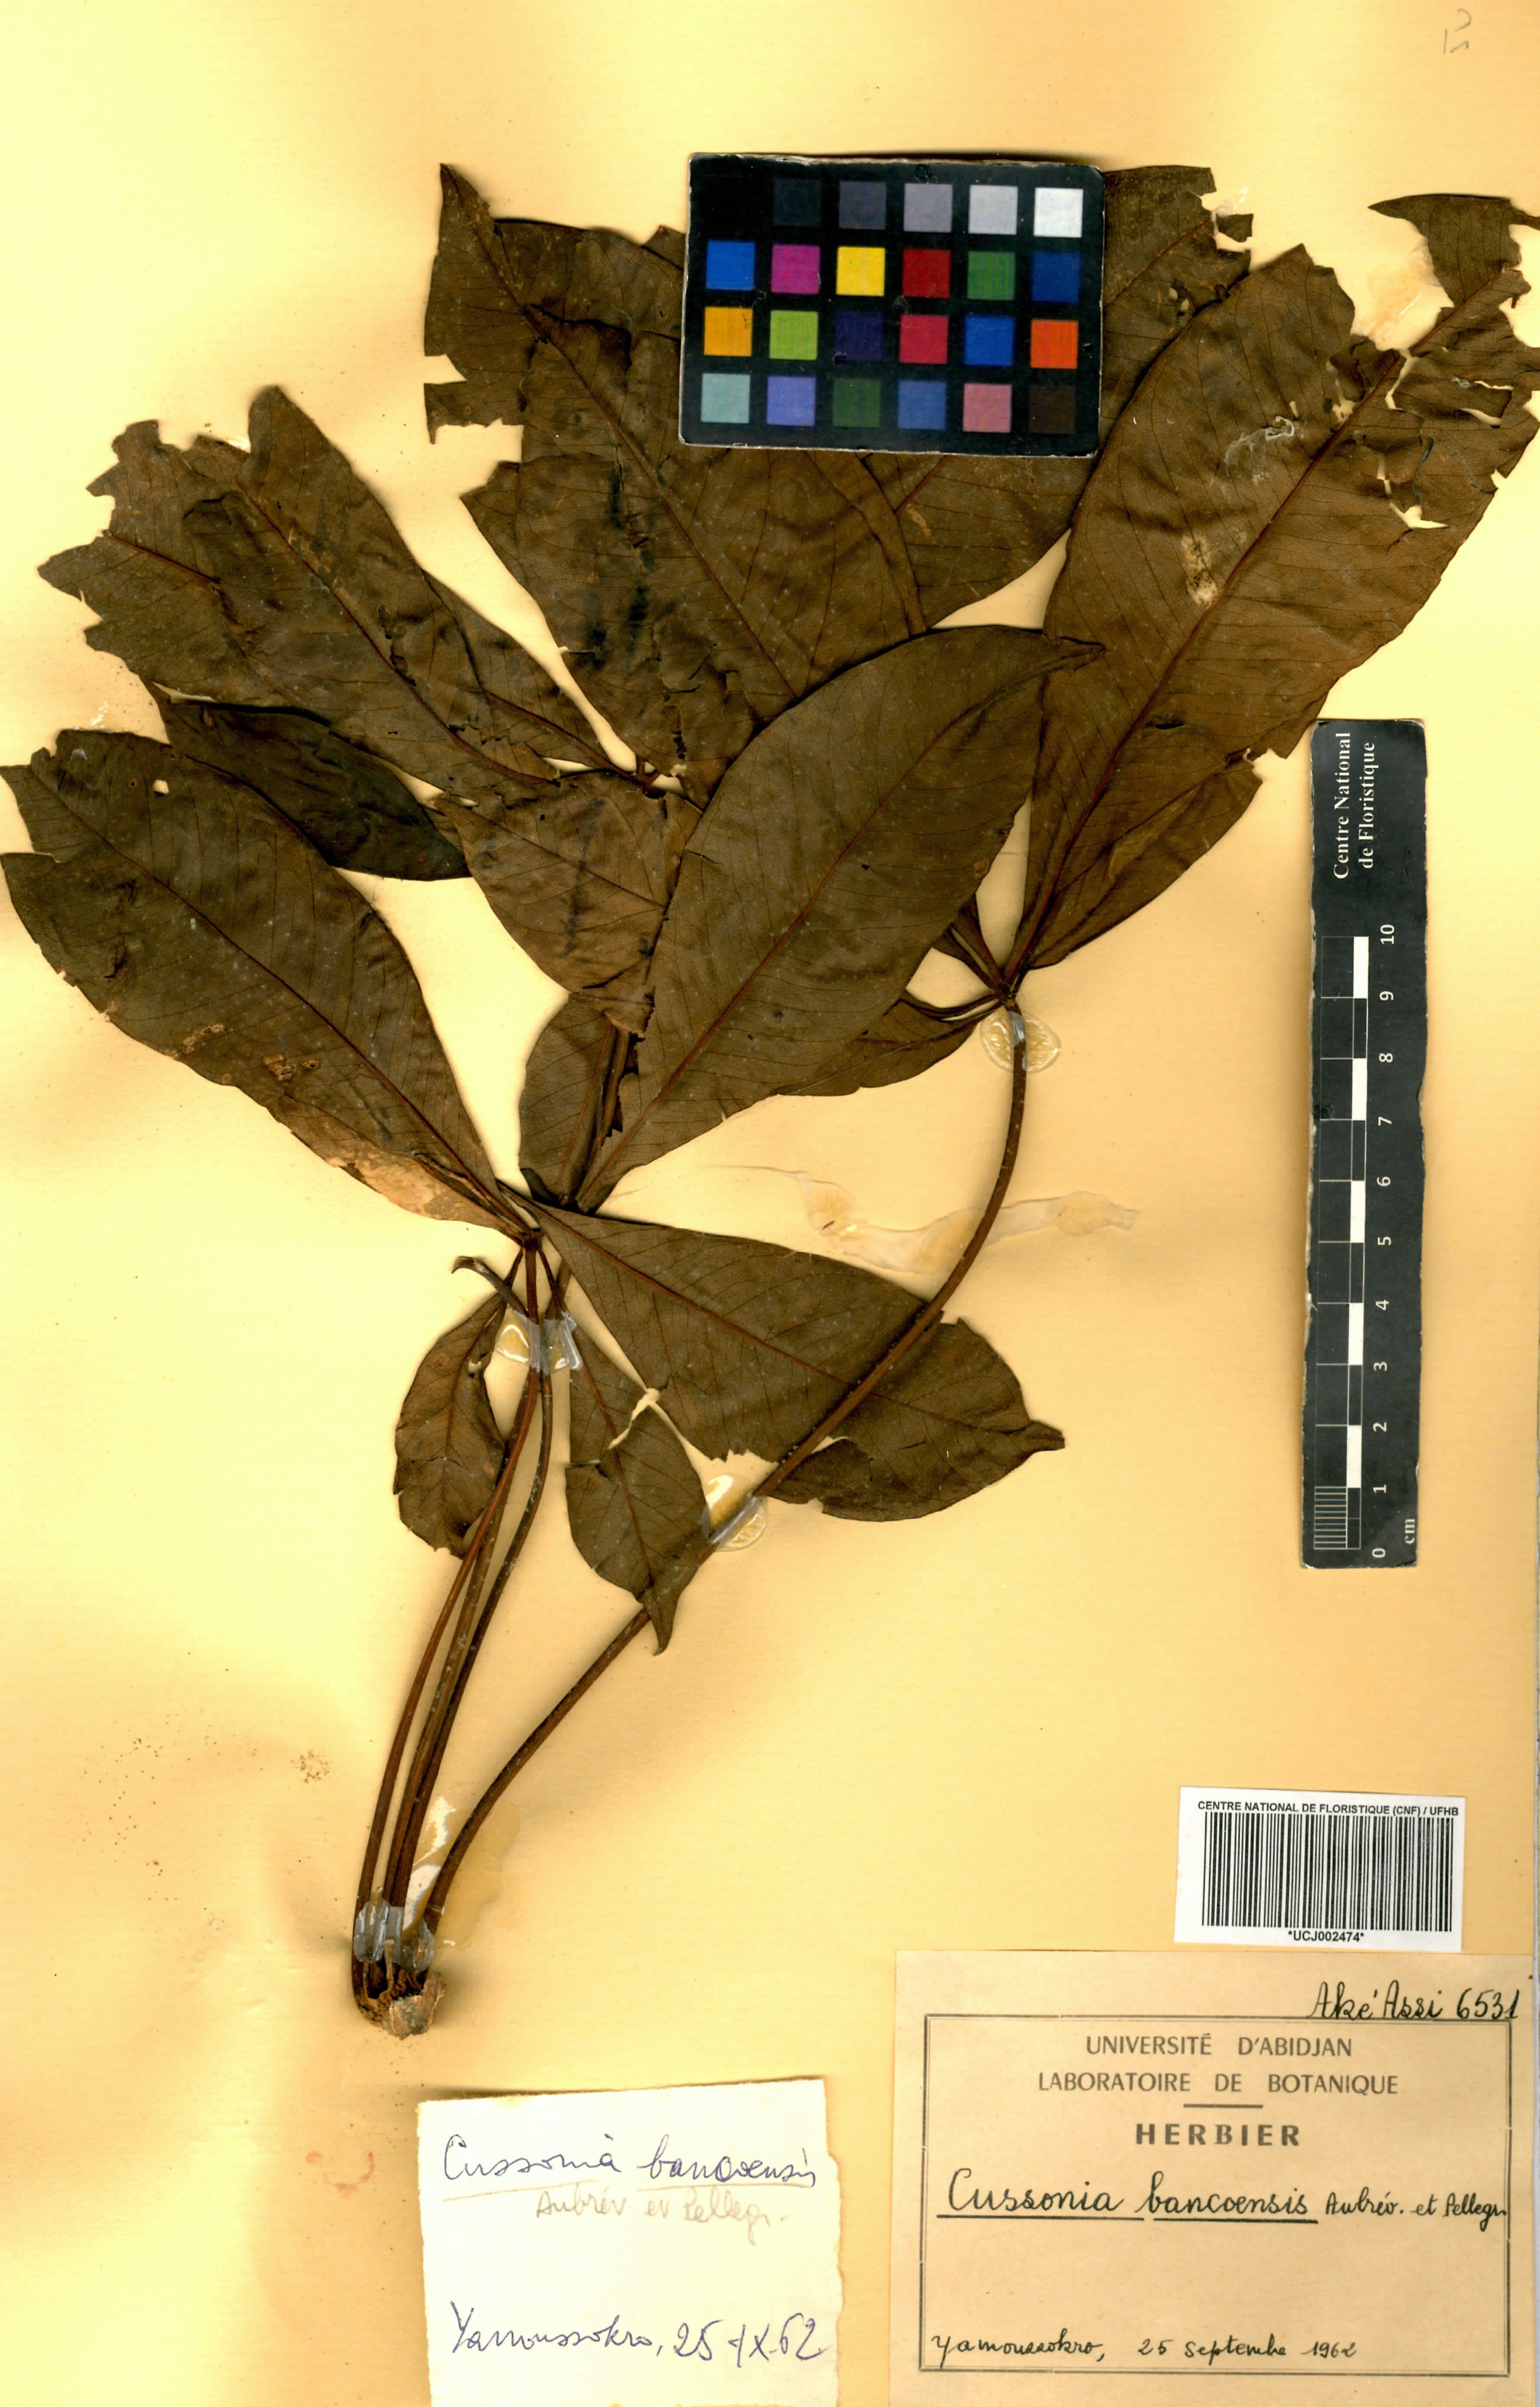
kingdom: Plantae
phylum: Tracheophyta
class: Magnoliopsida
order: Apiales
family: Araliaceae
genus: Cussonia
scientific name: Cussonia bancoensis
